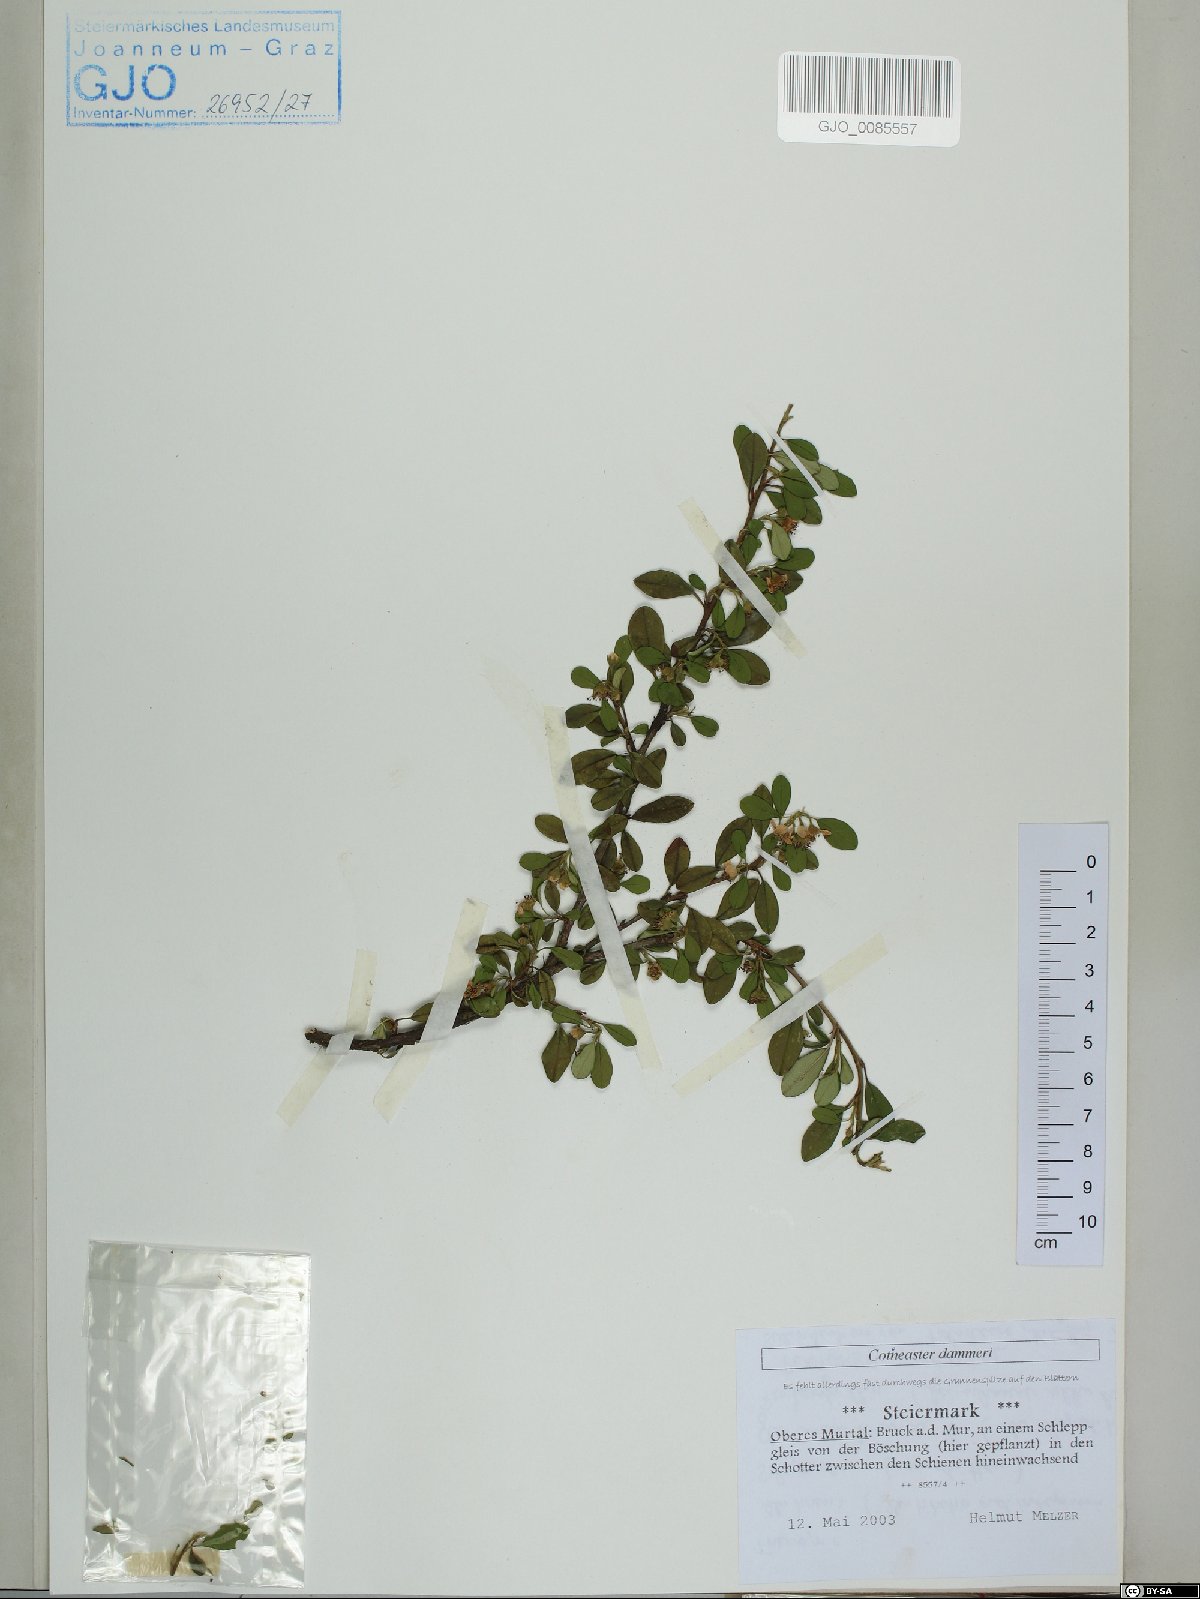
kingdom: Plantae
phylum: Tracheophyta
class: Magnoliopsida
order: Rosales
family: Rosaceae
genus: Cotoneaster
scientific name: Cotoneaster dammeri
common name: Bearberry cotoneaster
